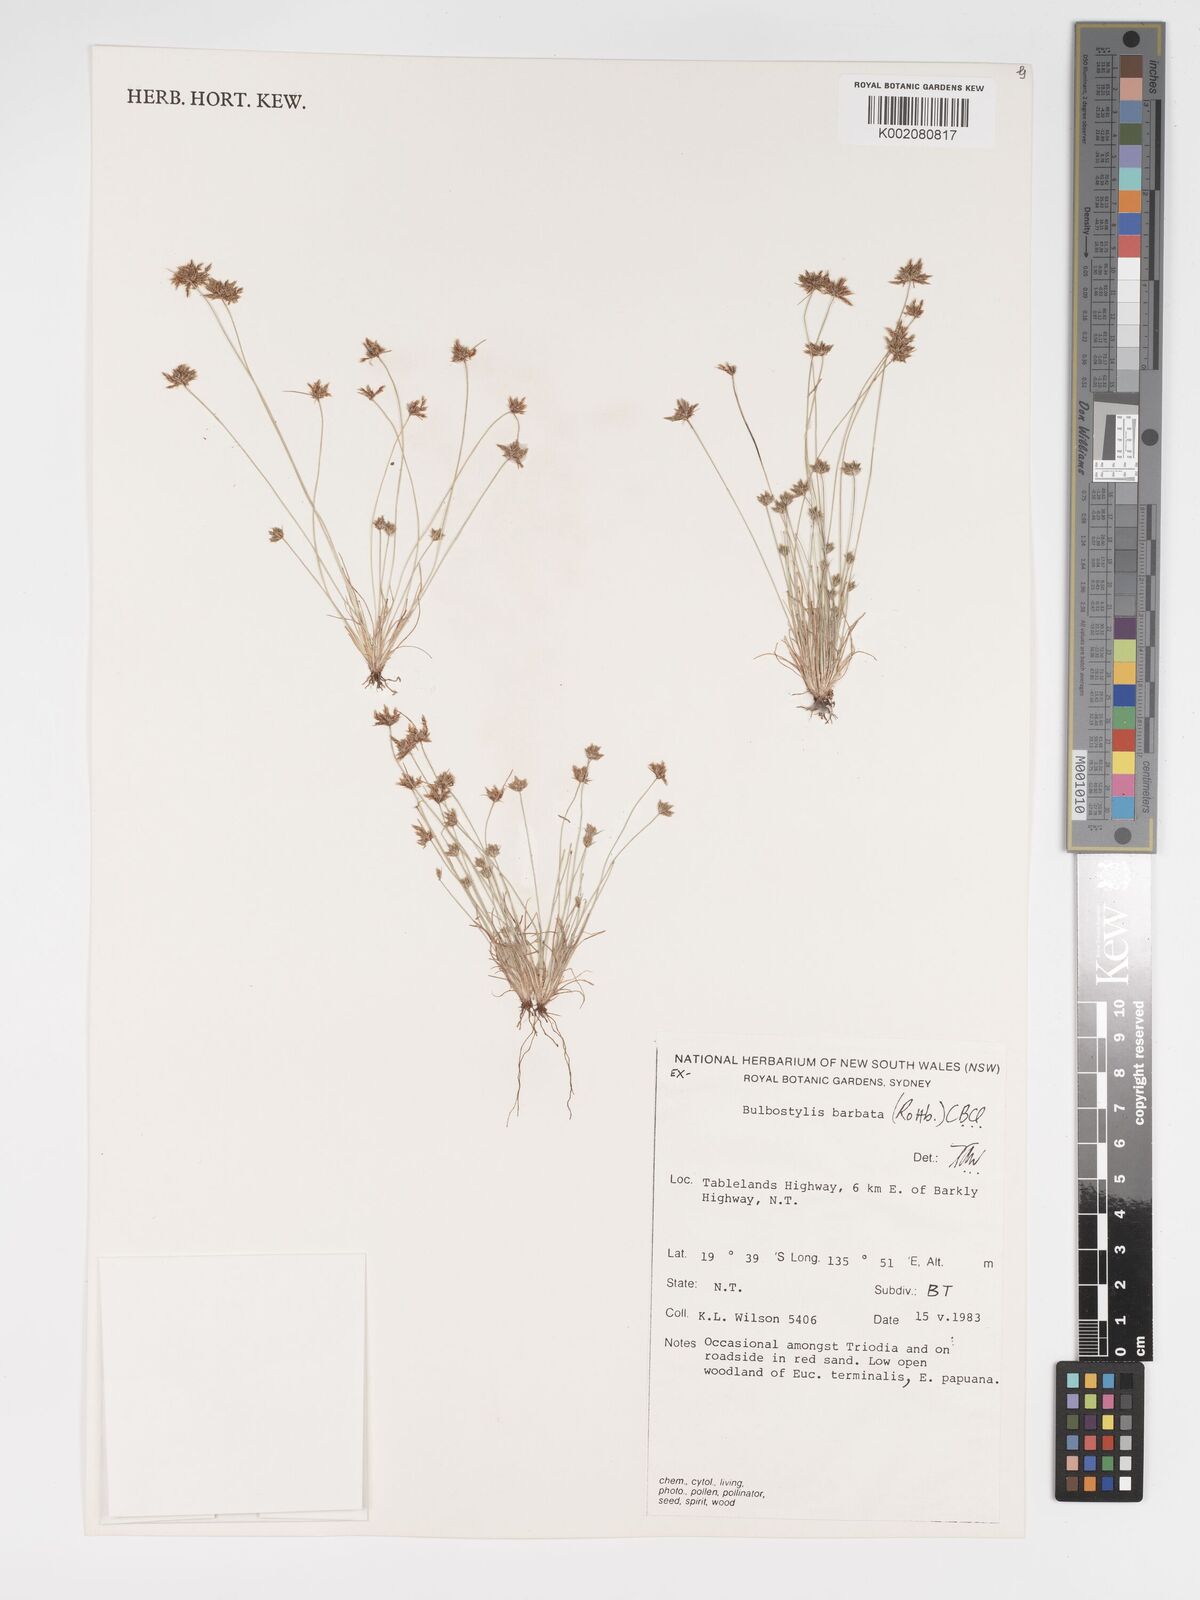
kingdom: Plantae
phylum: Tracheophyta
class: Liliopsida
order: Poales
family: Cyperaceae
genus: Bulbostylis
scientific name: Bulbostylis barbata
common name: Watergrass
